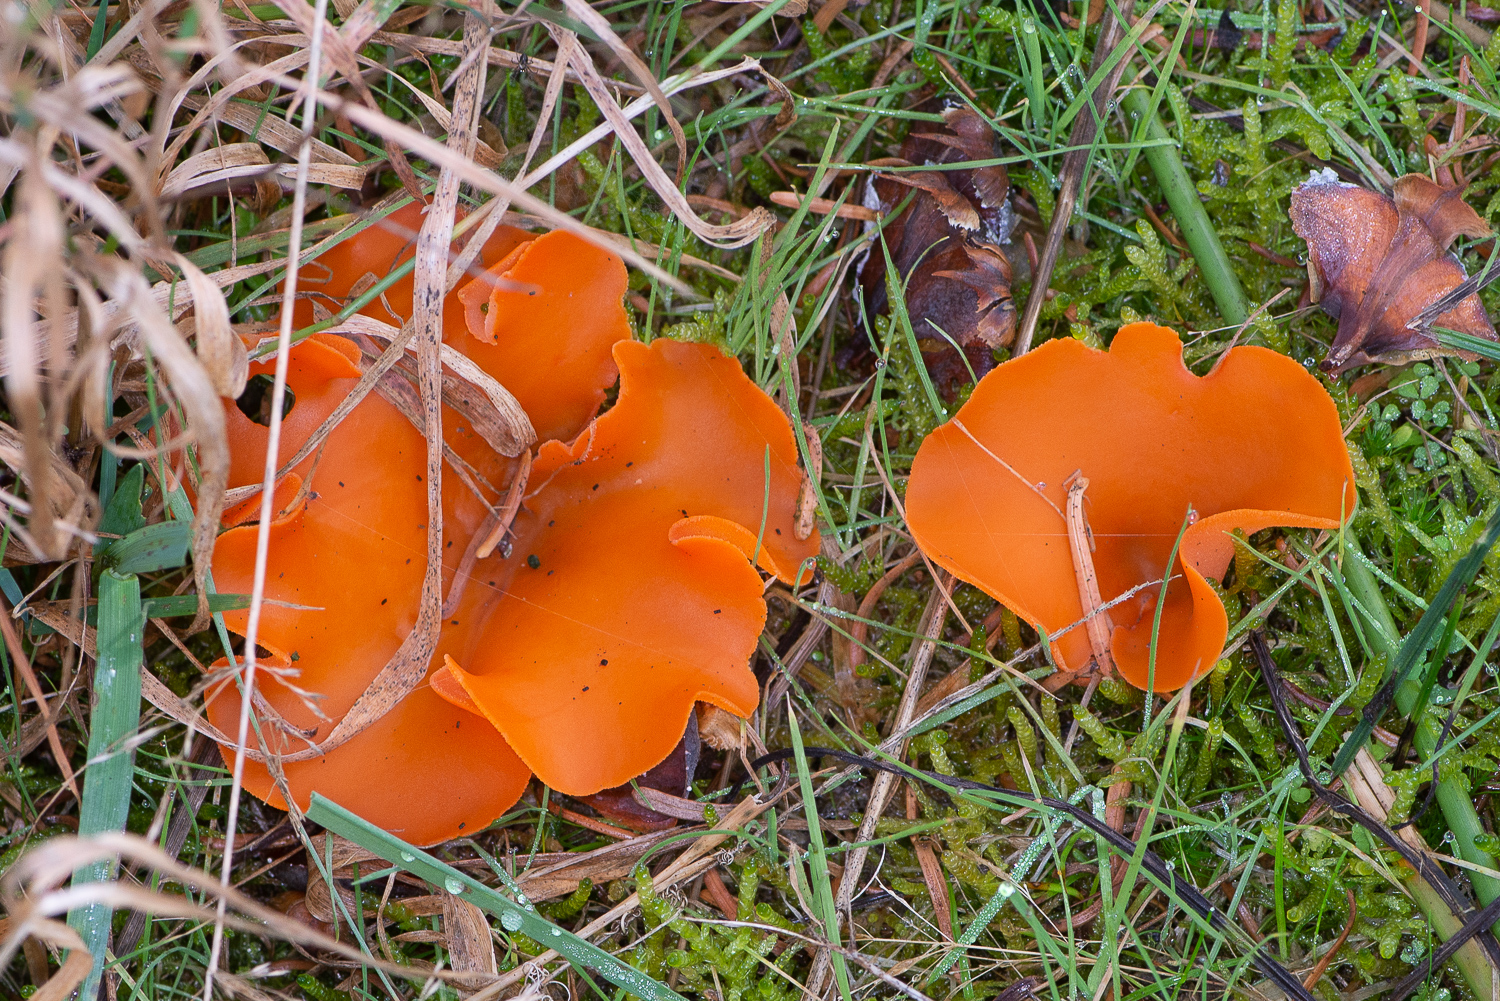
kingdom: Fungi
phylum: Ascomycota
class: Pezizomycetes
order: Pezizales
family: Pyronemataceae
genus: Aleuria
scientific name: Aleuria aurantia
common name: almindelig orangebæger
